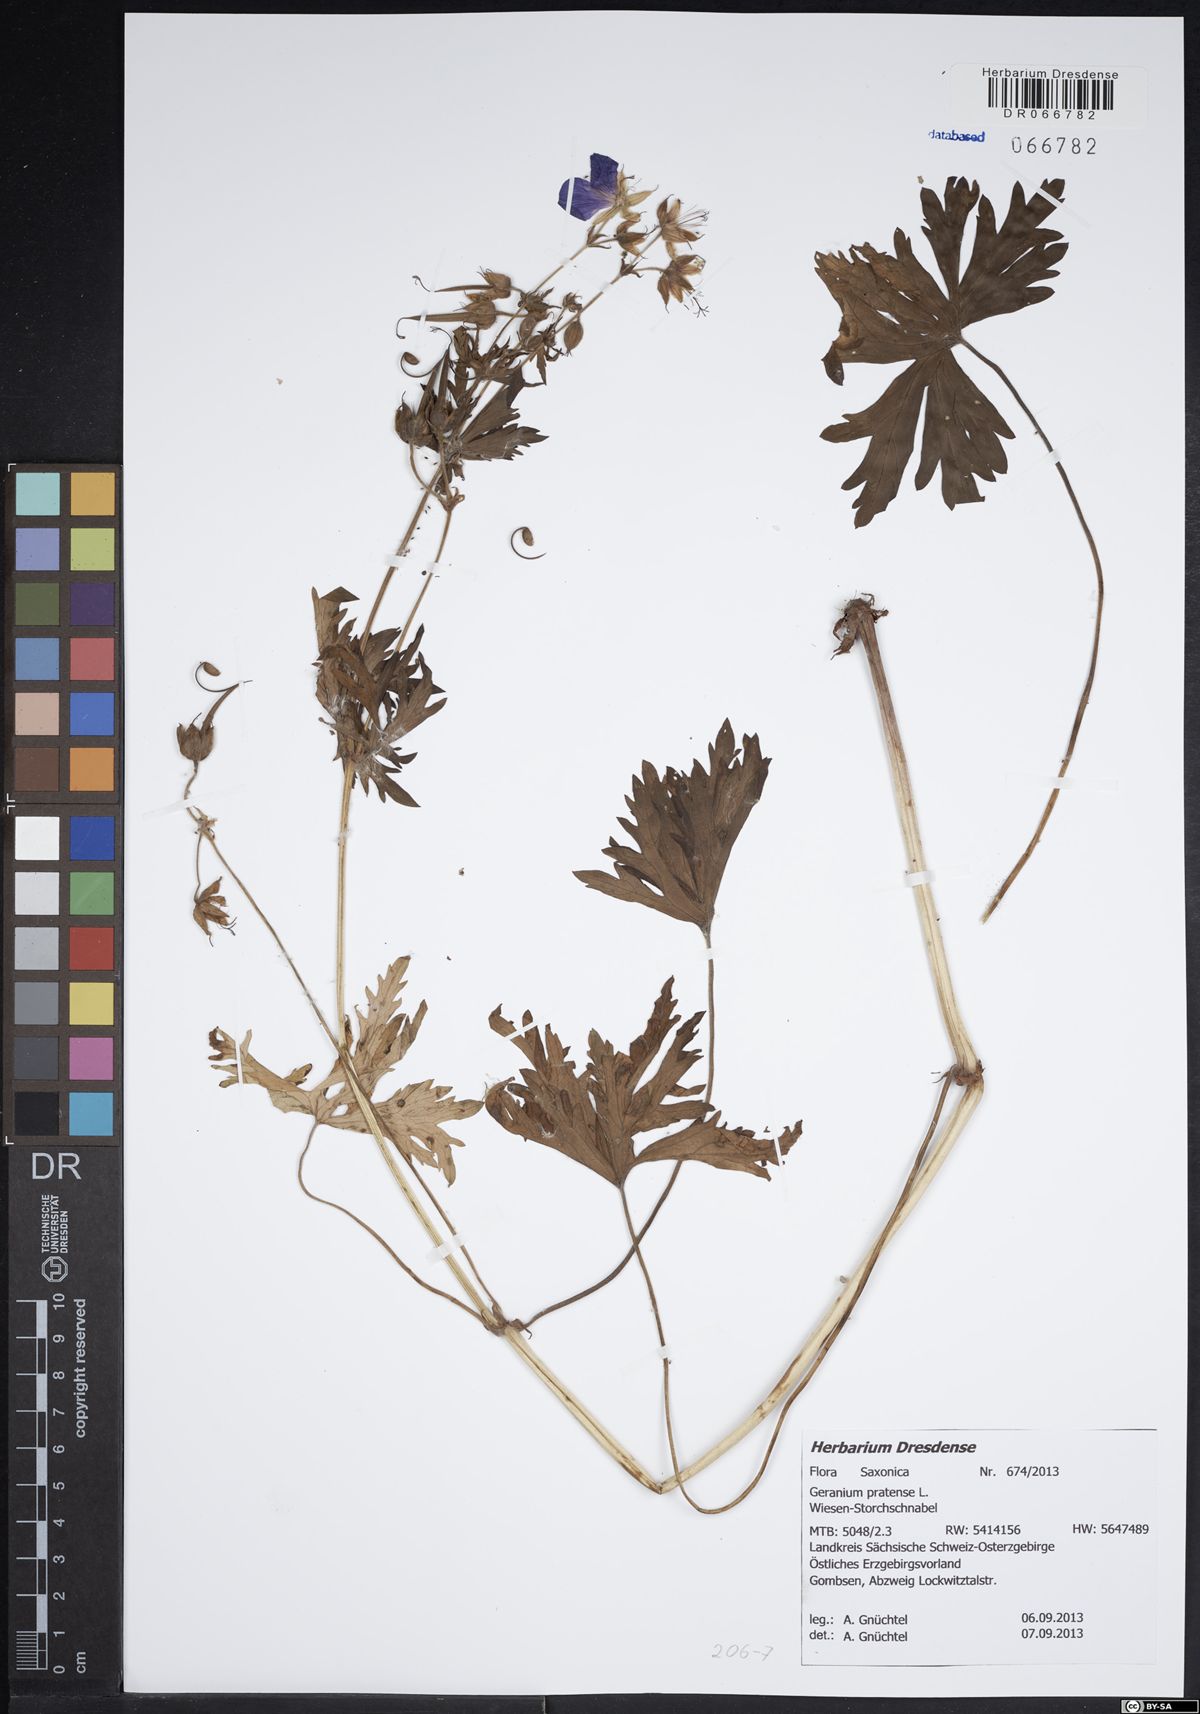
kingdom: Plantae
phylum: Tracheophyta
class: Magnoliopsida
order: Geraniales
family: Geraniaceae
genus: Geranium
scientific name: Geranium pratense
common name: Meadow crane's-bill
